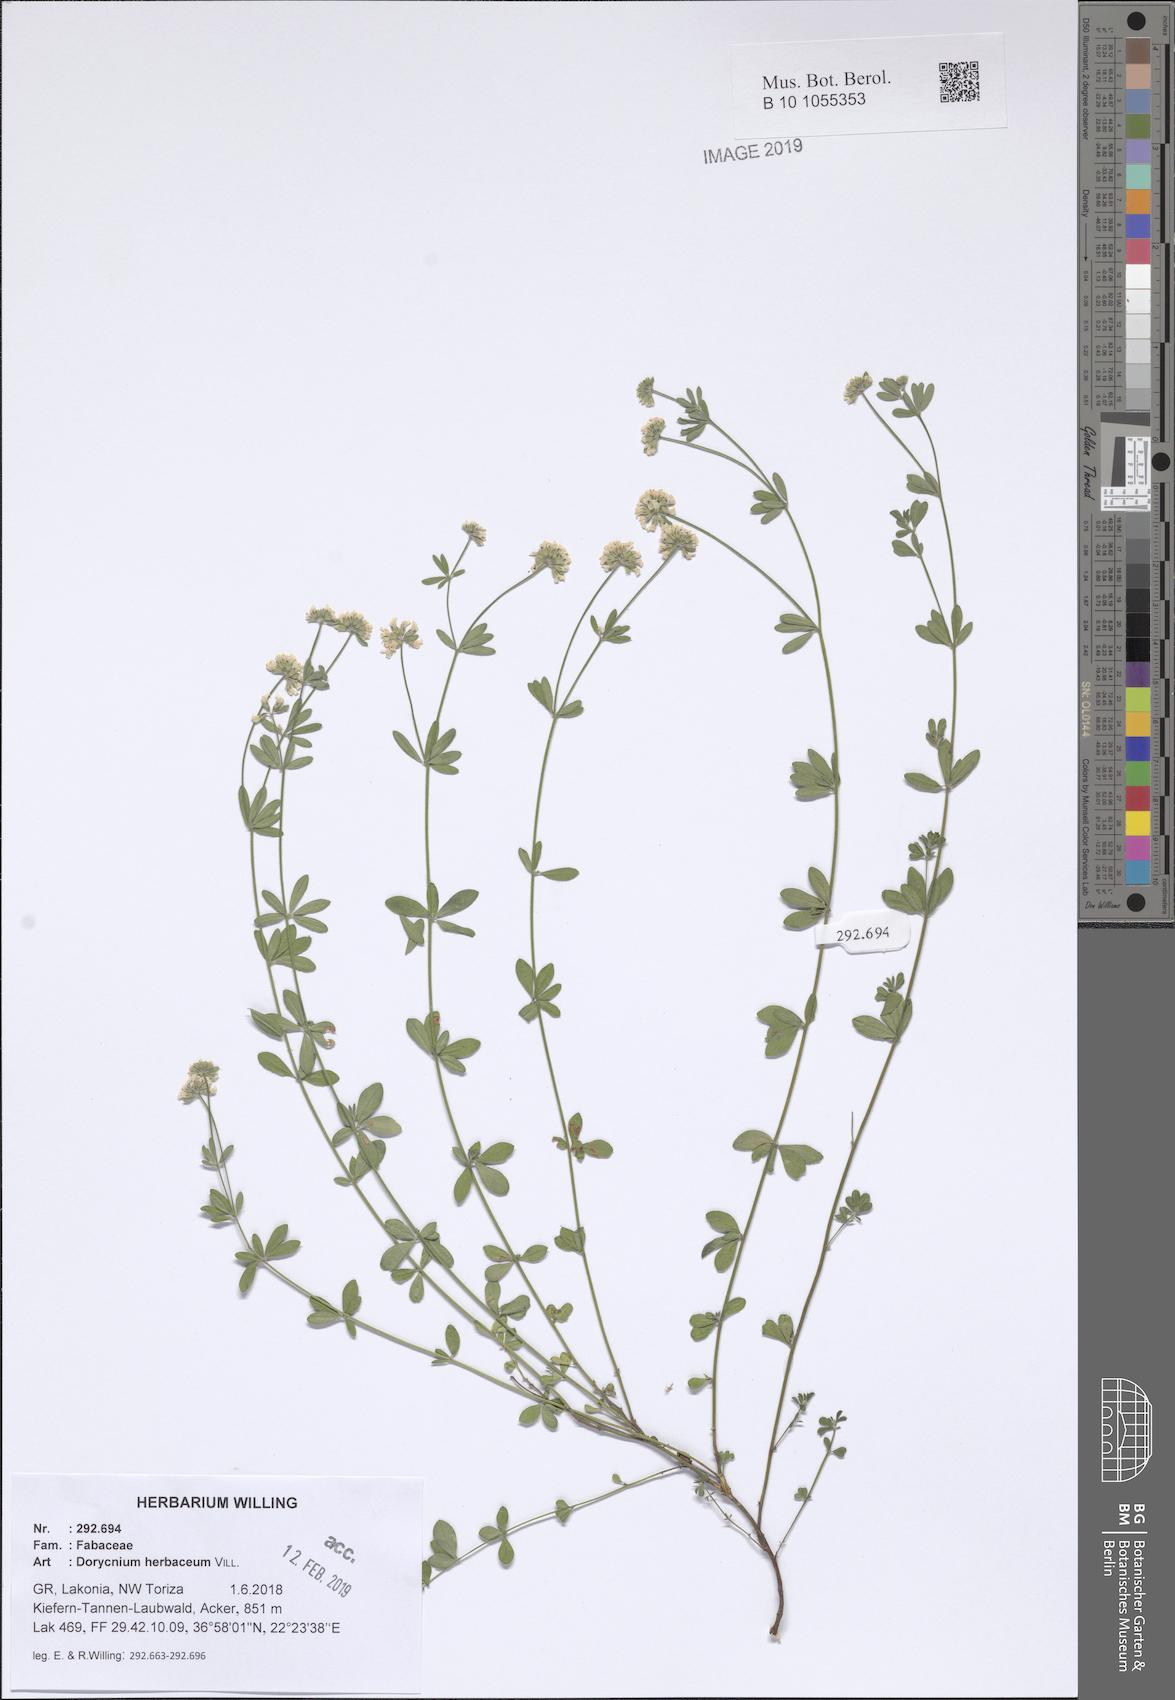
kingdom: Plantae
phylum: Tracheophyta
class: Magnoliopsida
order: Fabales
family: Fabaceae
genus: Lotus
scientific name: Lotus herbaceus
